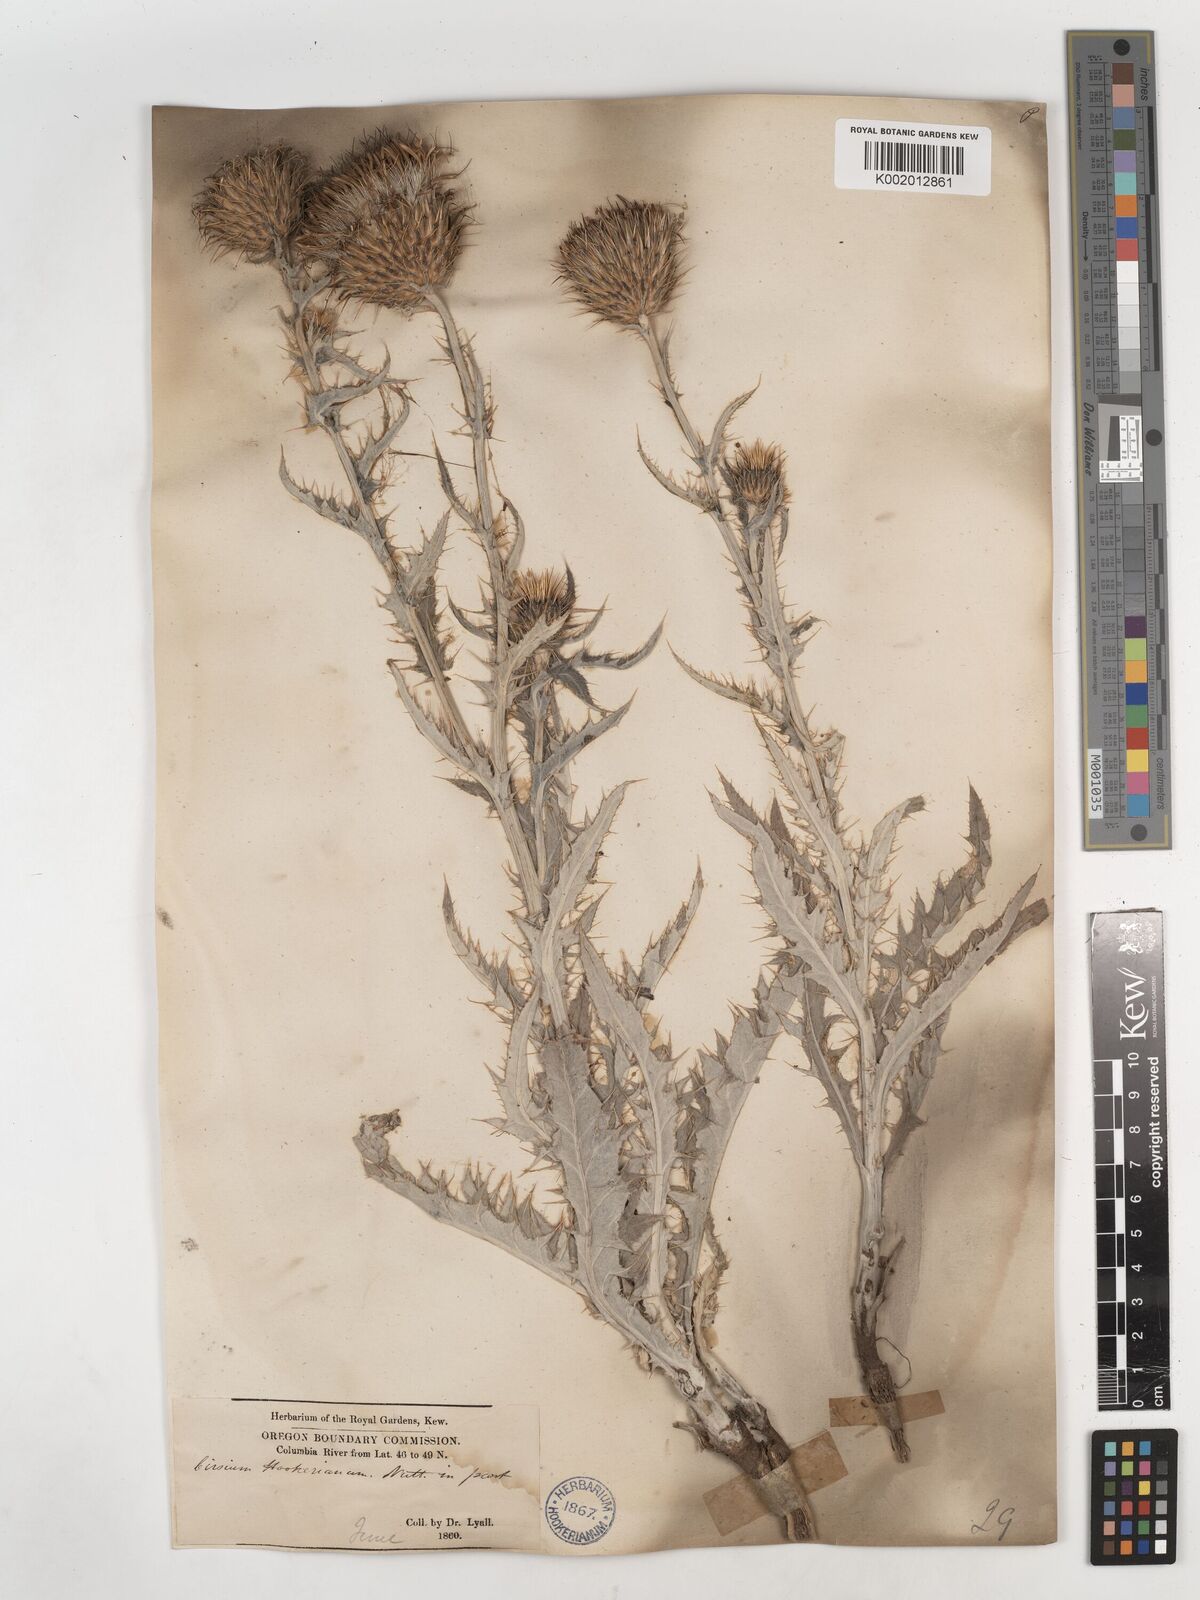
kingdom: Plantae
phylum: Tracheophyta
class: Magnoliopsida
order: Asterales
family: Asteraceae
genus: Cirsium
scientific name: Cirsium hookerianum
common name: Hooker's thistle
